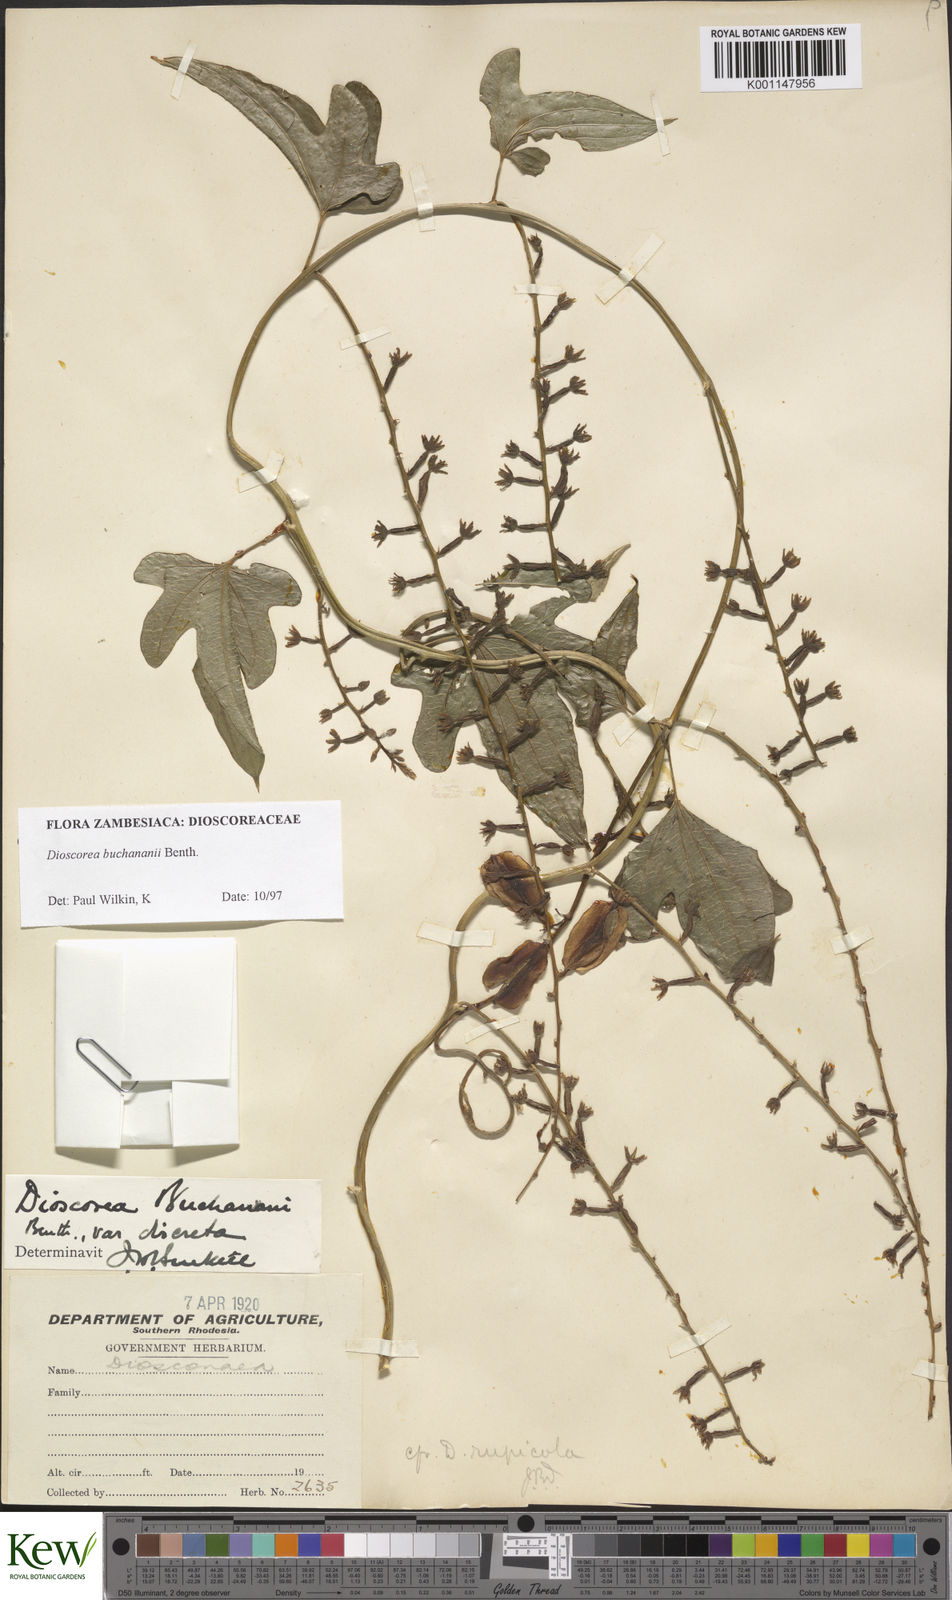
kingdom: Plantae
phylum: Tracheophyta
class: Liliopsida
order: Dioscoreales
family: Dioscoreaceae
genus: Dioscorea
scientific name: Dioscorea buchananii
